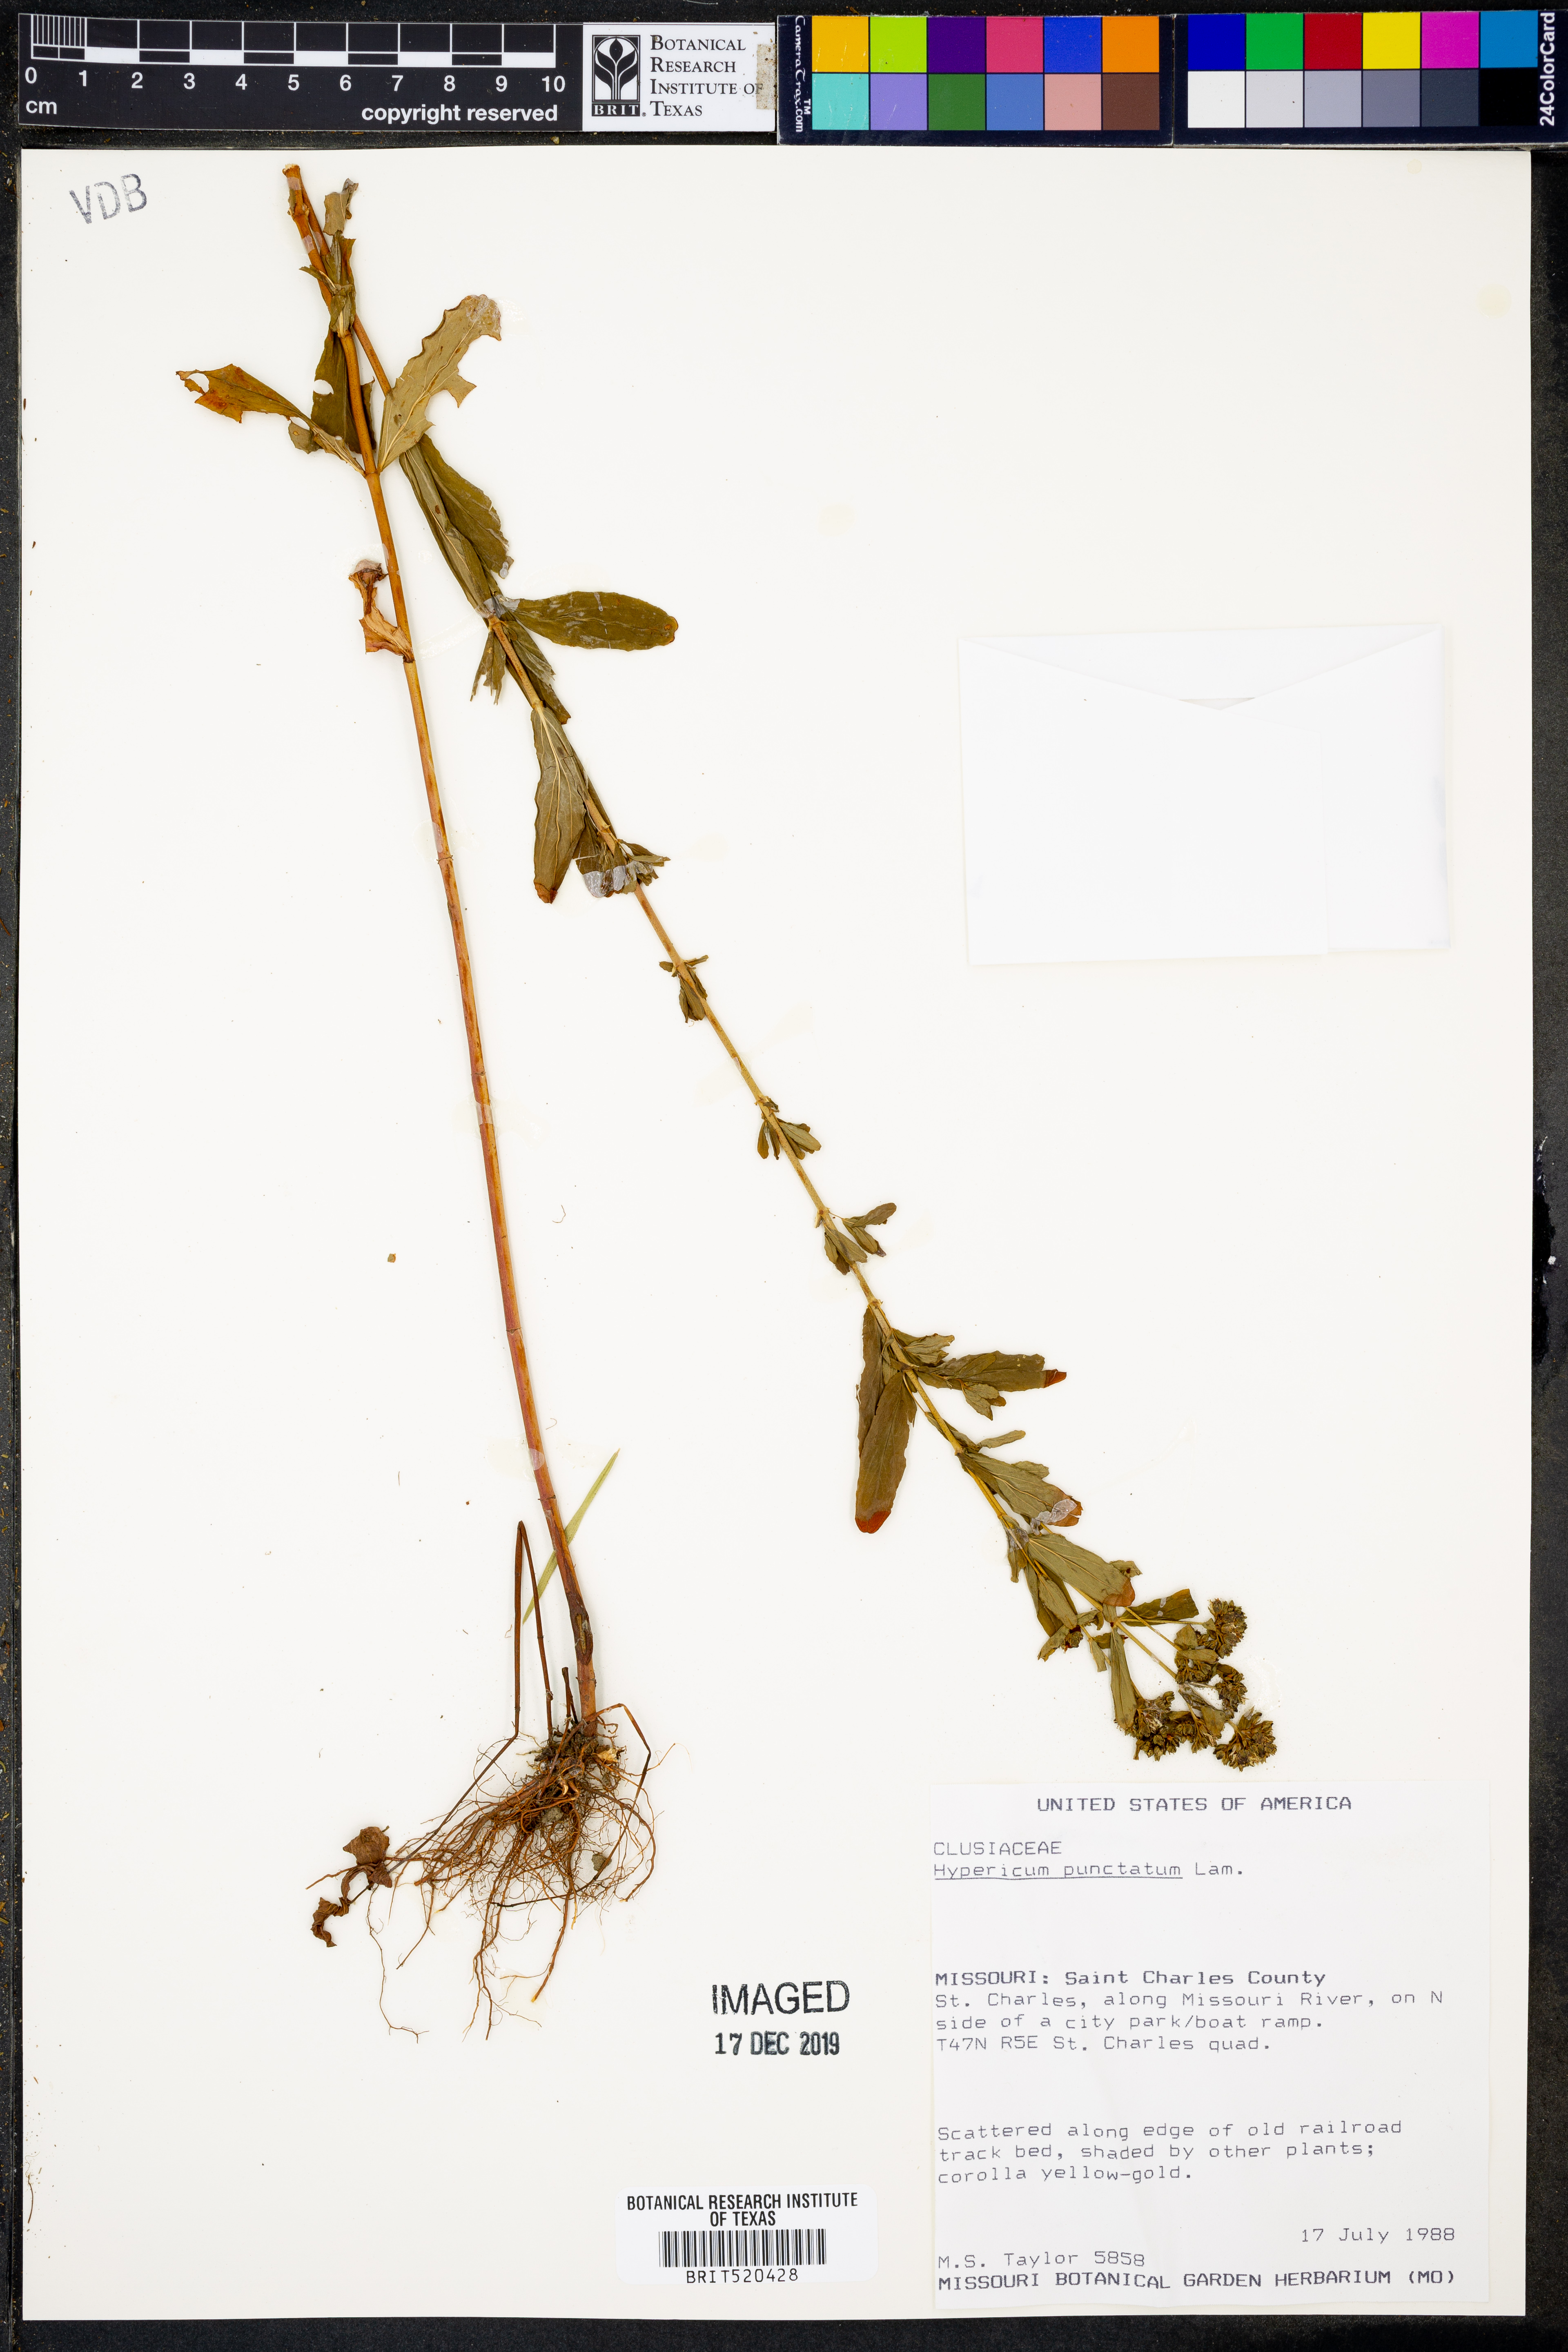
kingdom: Plantae
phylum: Tracheophyta
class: Magnoliopsida
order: Malpighiales
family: Hypericaceae
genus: Hypericum
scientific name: Hypericum punctatum
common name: Spotted st. john's-wort
